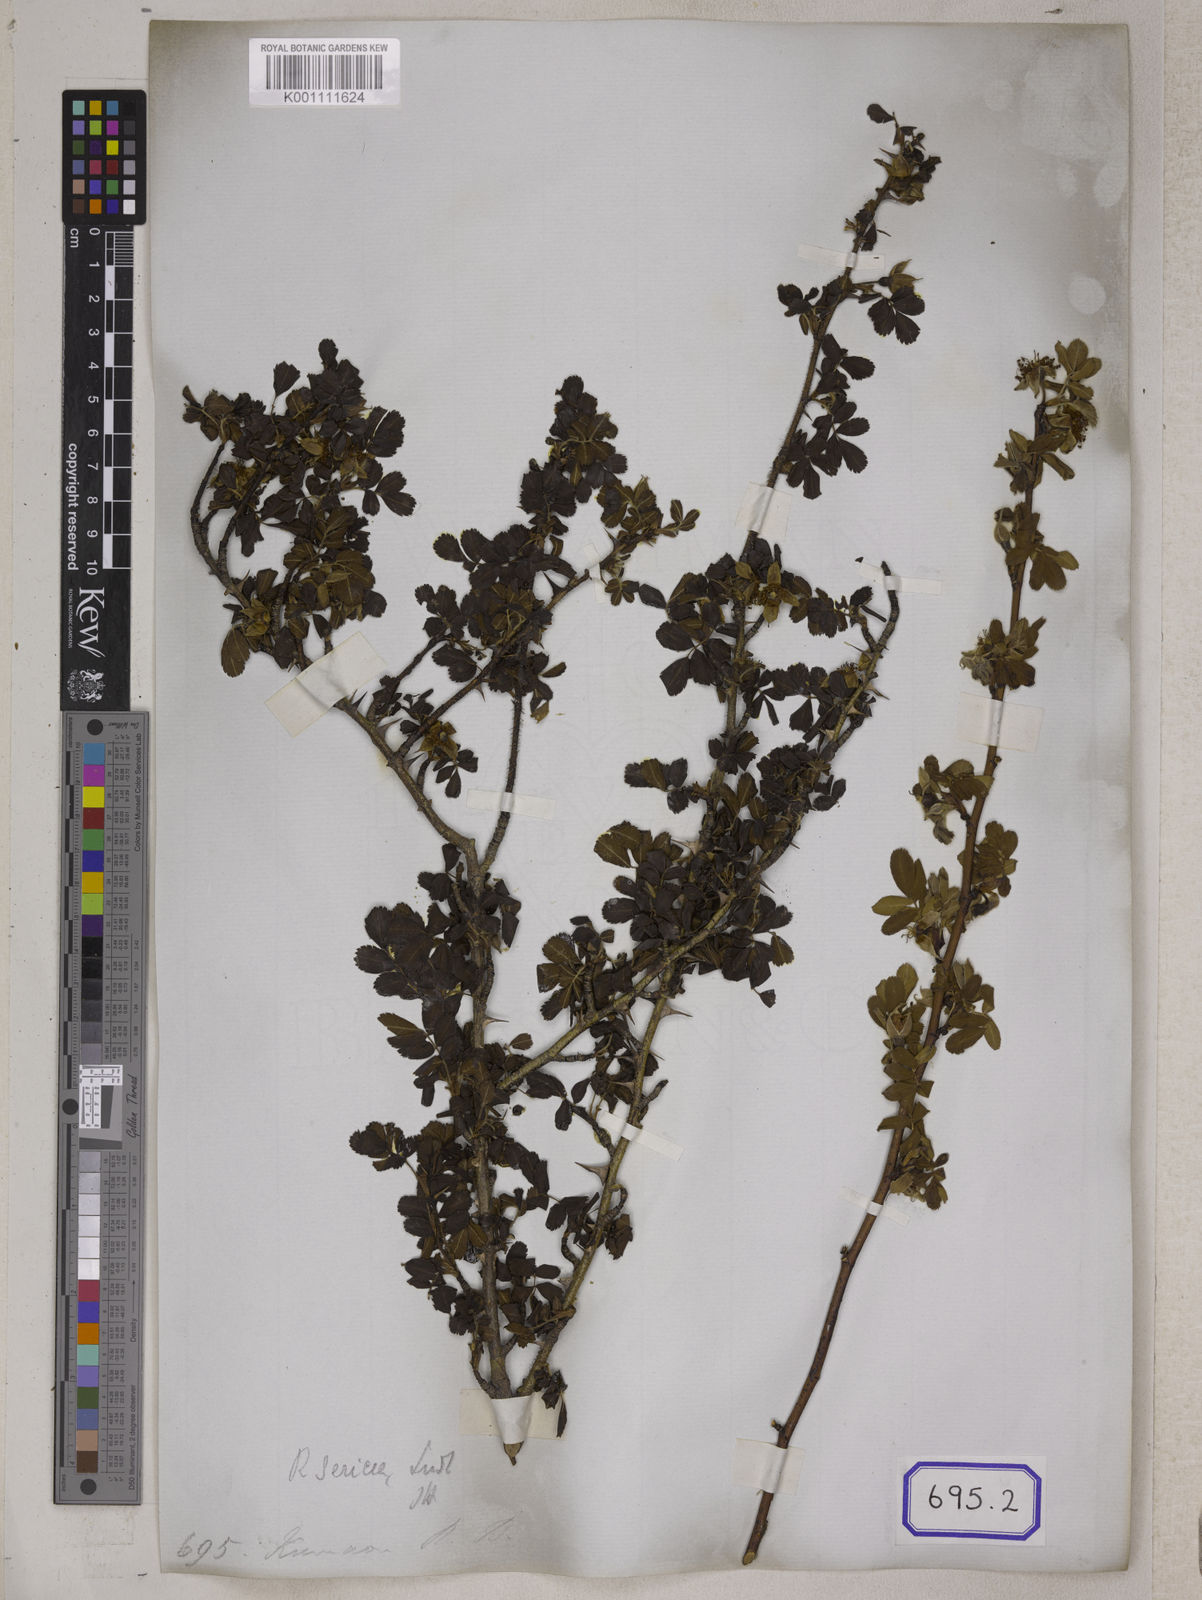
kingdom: Plantae
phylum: Tracheophyta
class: Magnoliopsida
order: Rosales
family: Rosaceae
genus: Rosa
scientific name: Rosa sericea
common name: Silky rose
